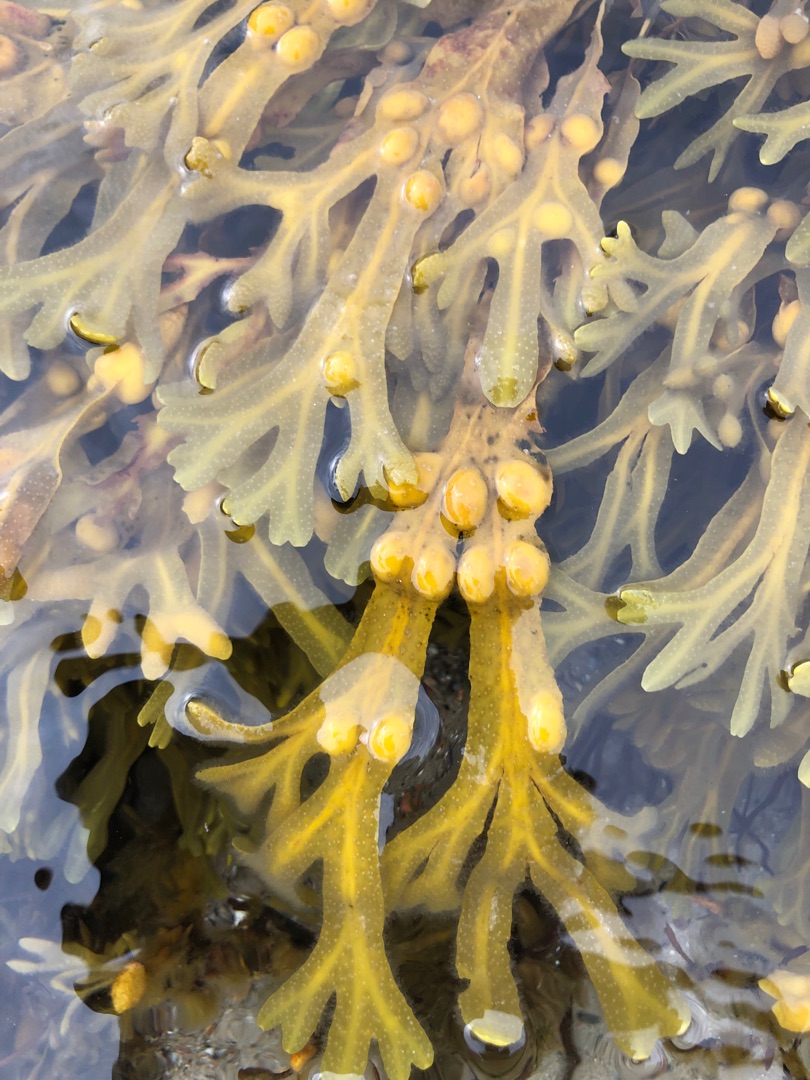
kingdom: Chromista
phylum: Ochrophyta
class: Phaeophyceae
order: Fucales
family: Fucaceae
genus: Fucus
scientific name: Fucus vesiculosus
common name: Blæretang
